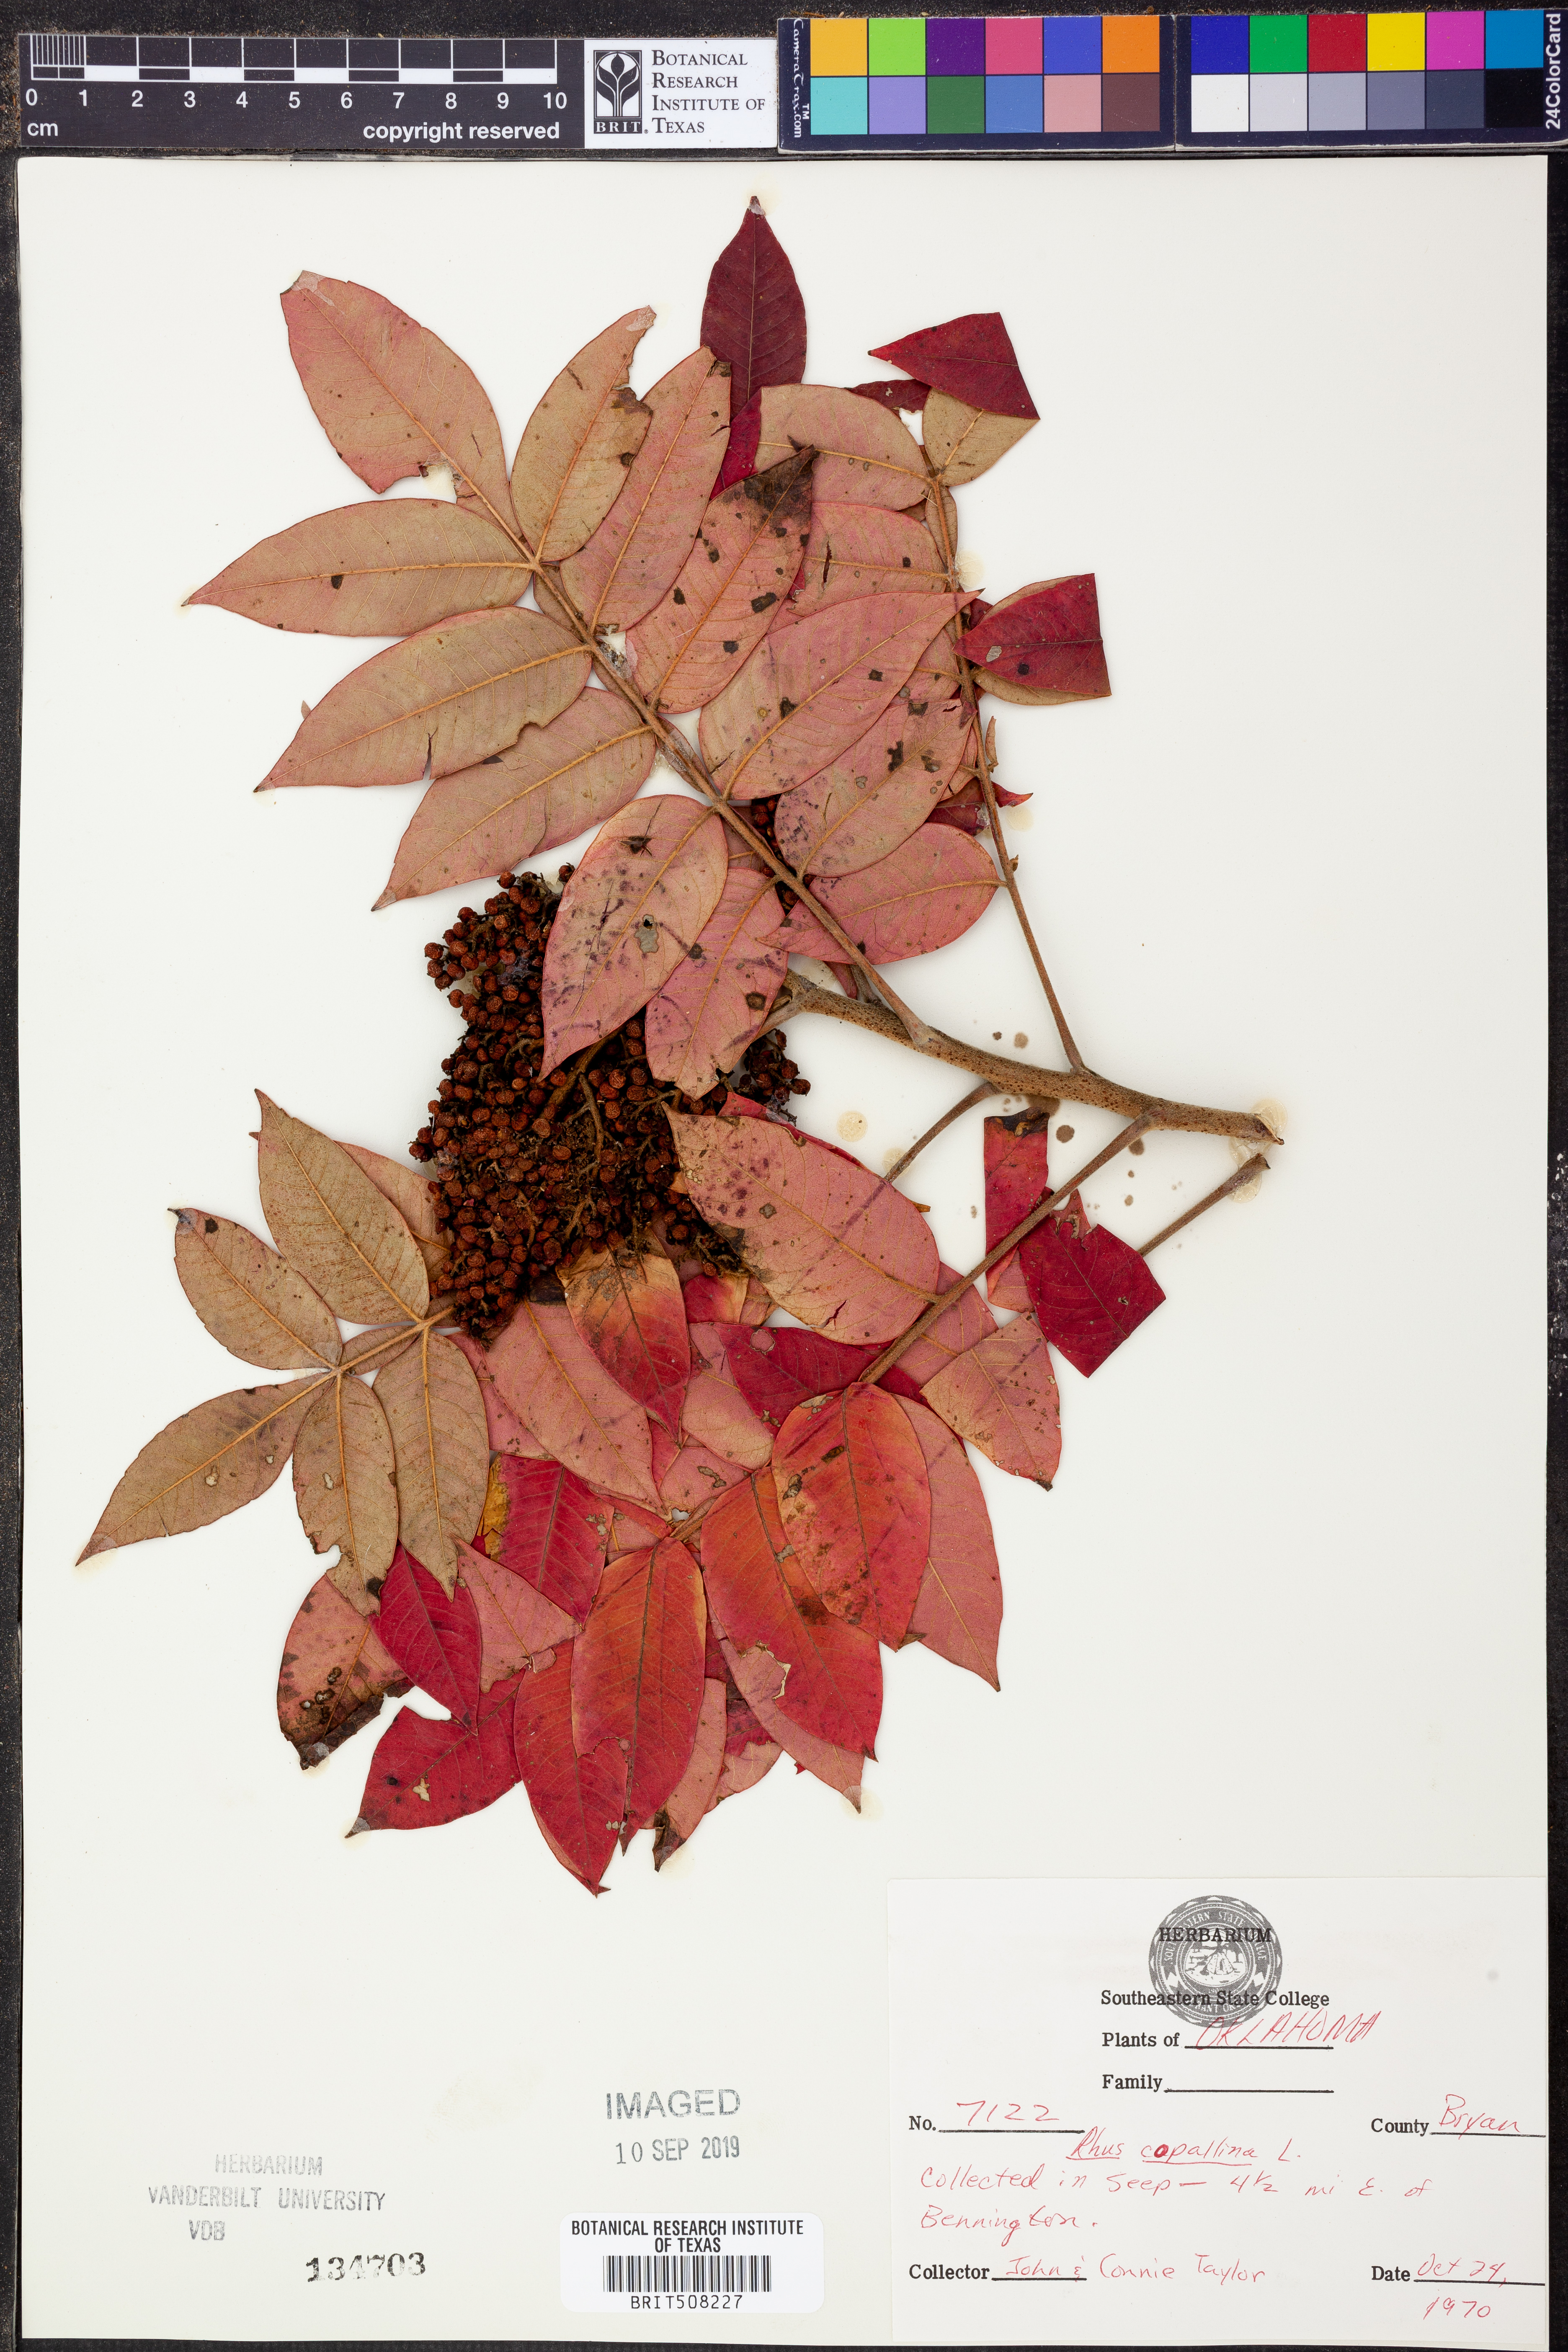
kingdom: Plantae
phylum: Tracheophyta
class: Magnoliopsida
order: Sapindales
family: Anacardiaceae
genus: Rhus
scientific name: Rhus copallina
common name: Shining sumac
